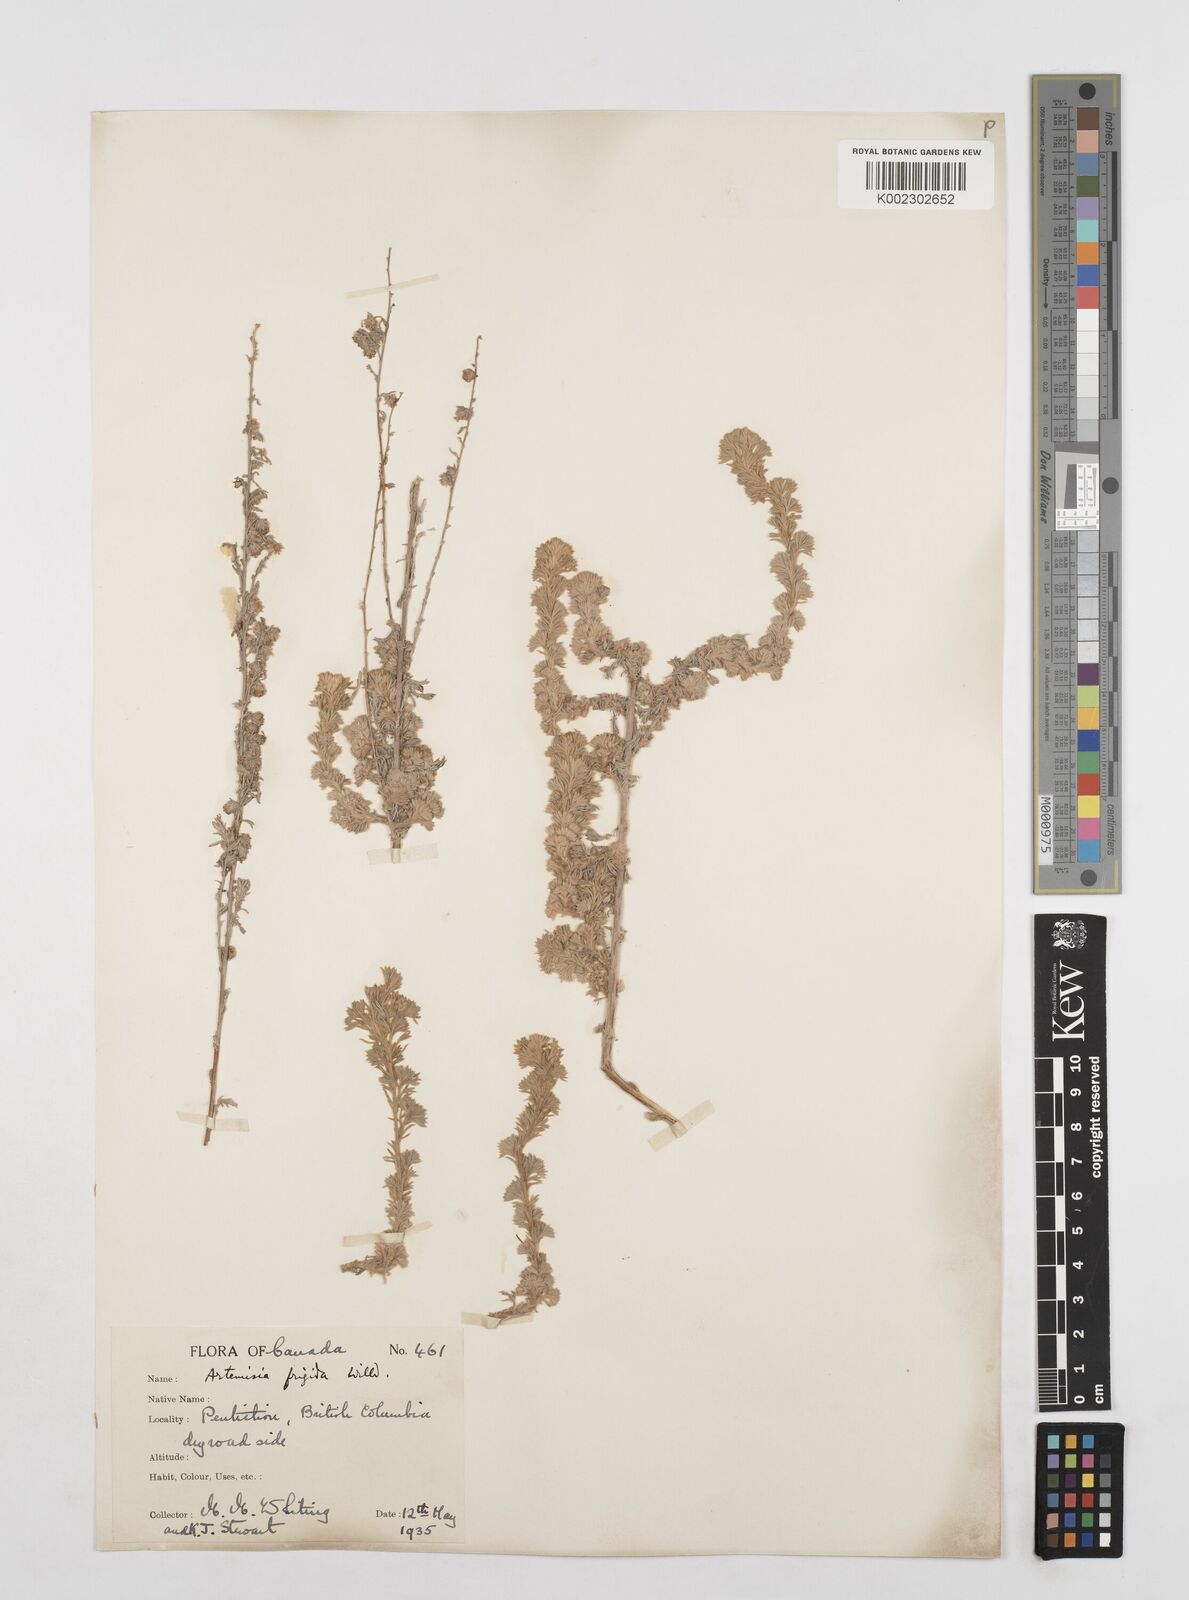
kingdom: Plantae
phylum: Tracheophyta
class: Magnoliopsida
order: Asterales
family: Asteraceae
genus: Artemisia
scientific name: Artemisia frigida
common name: Prairie sagewort
